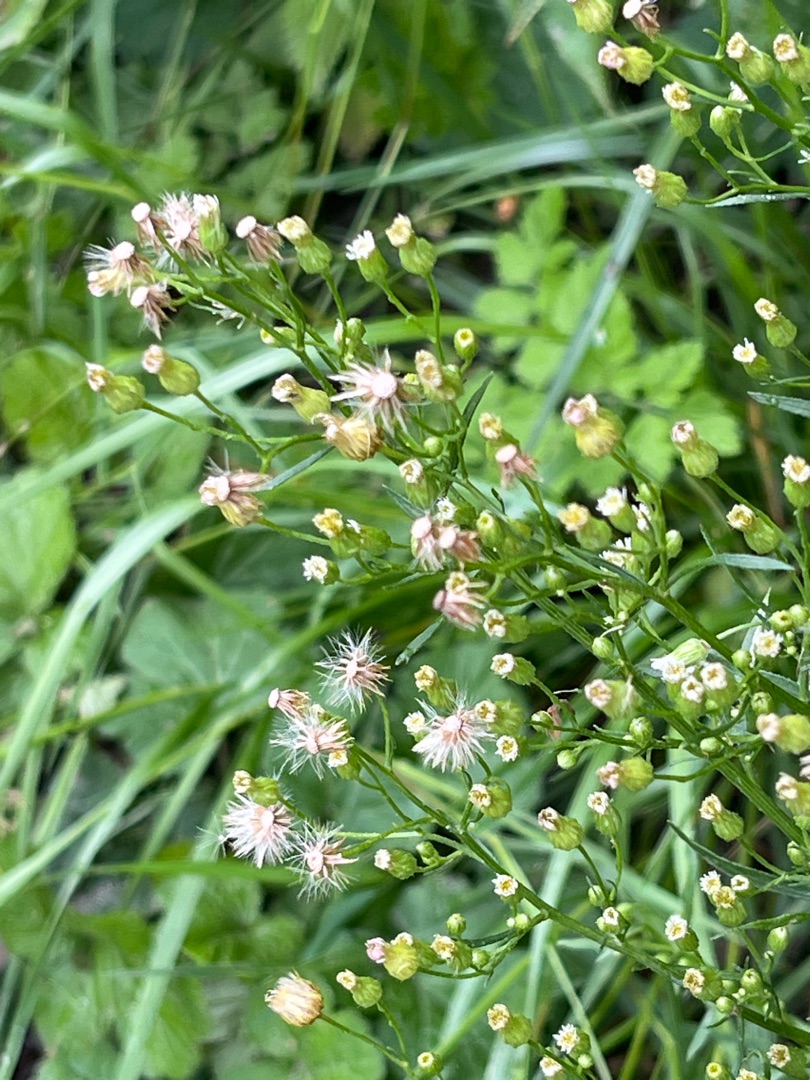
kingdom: Plantae
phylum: Tracheophyta
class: Magnoliopsida
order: Asterales
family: Asteraceae
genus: Erigeron
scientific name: Erigeron canadensis
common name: Kanadisk bakkestjerne
